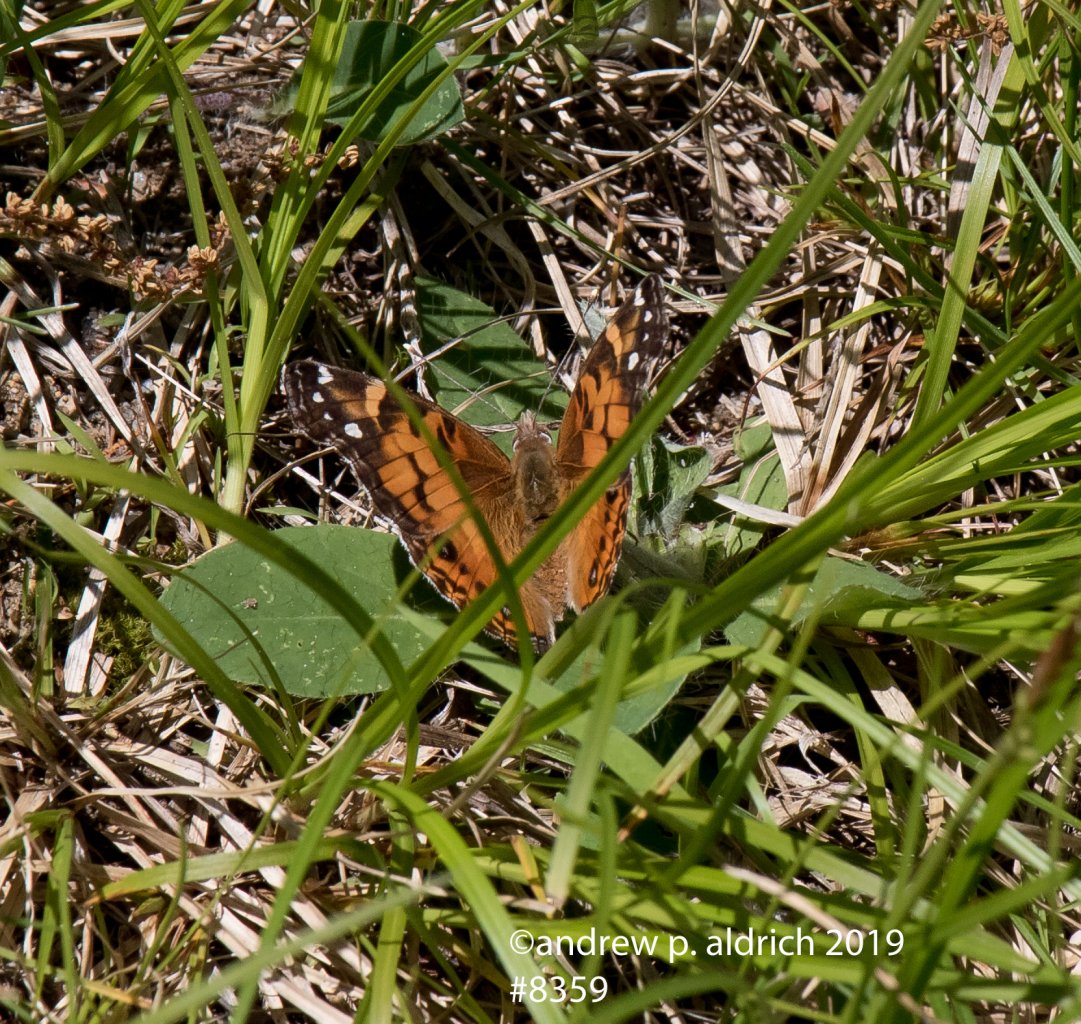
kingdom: Animalia
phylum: Arthropoda
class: Insecta
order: Lepidoptera
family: Nymphalidae
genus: Vanessa
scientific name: Vanessa virginiensis
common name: American Lady
